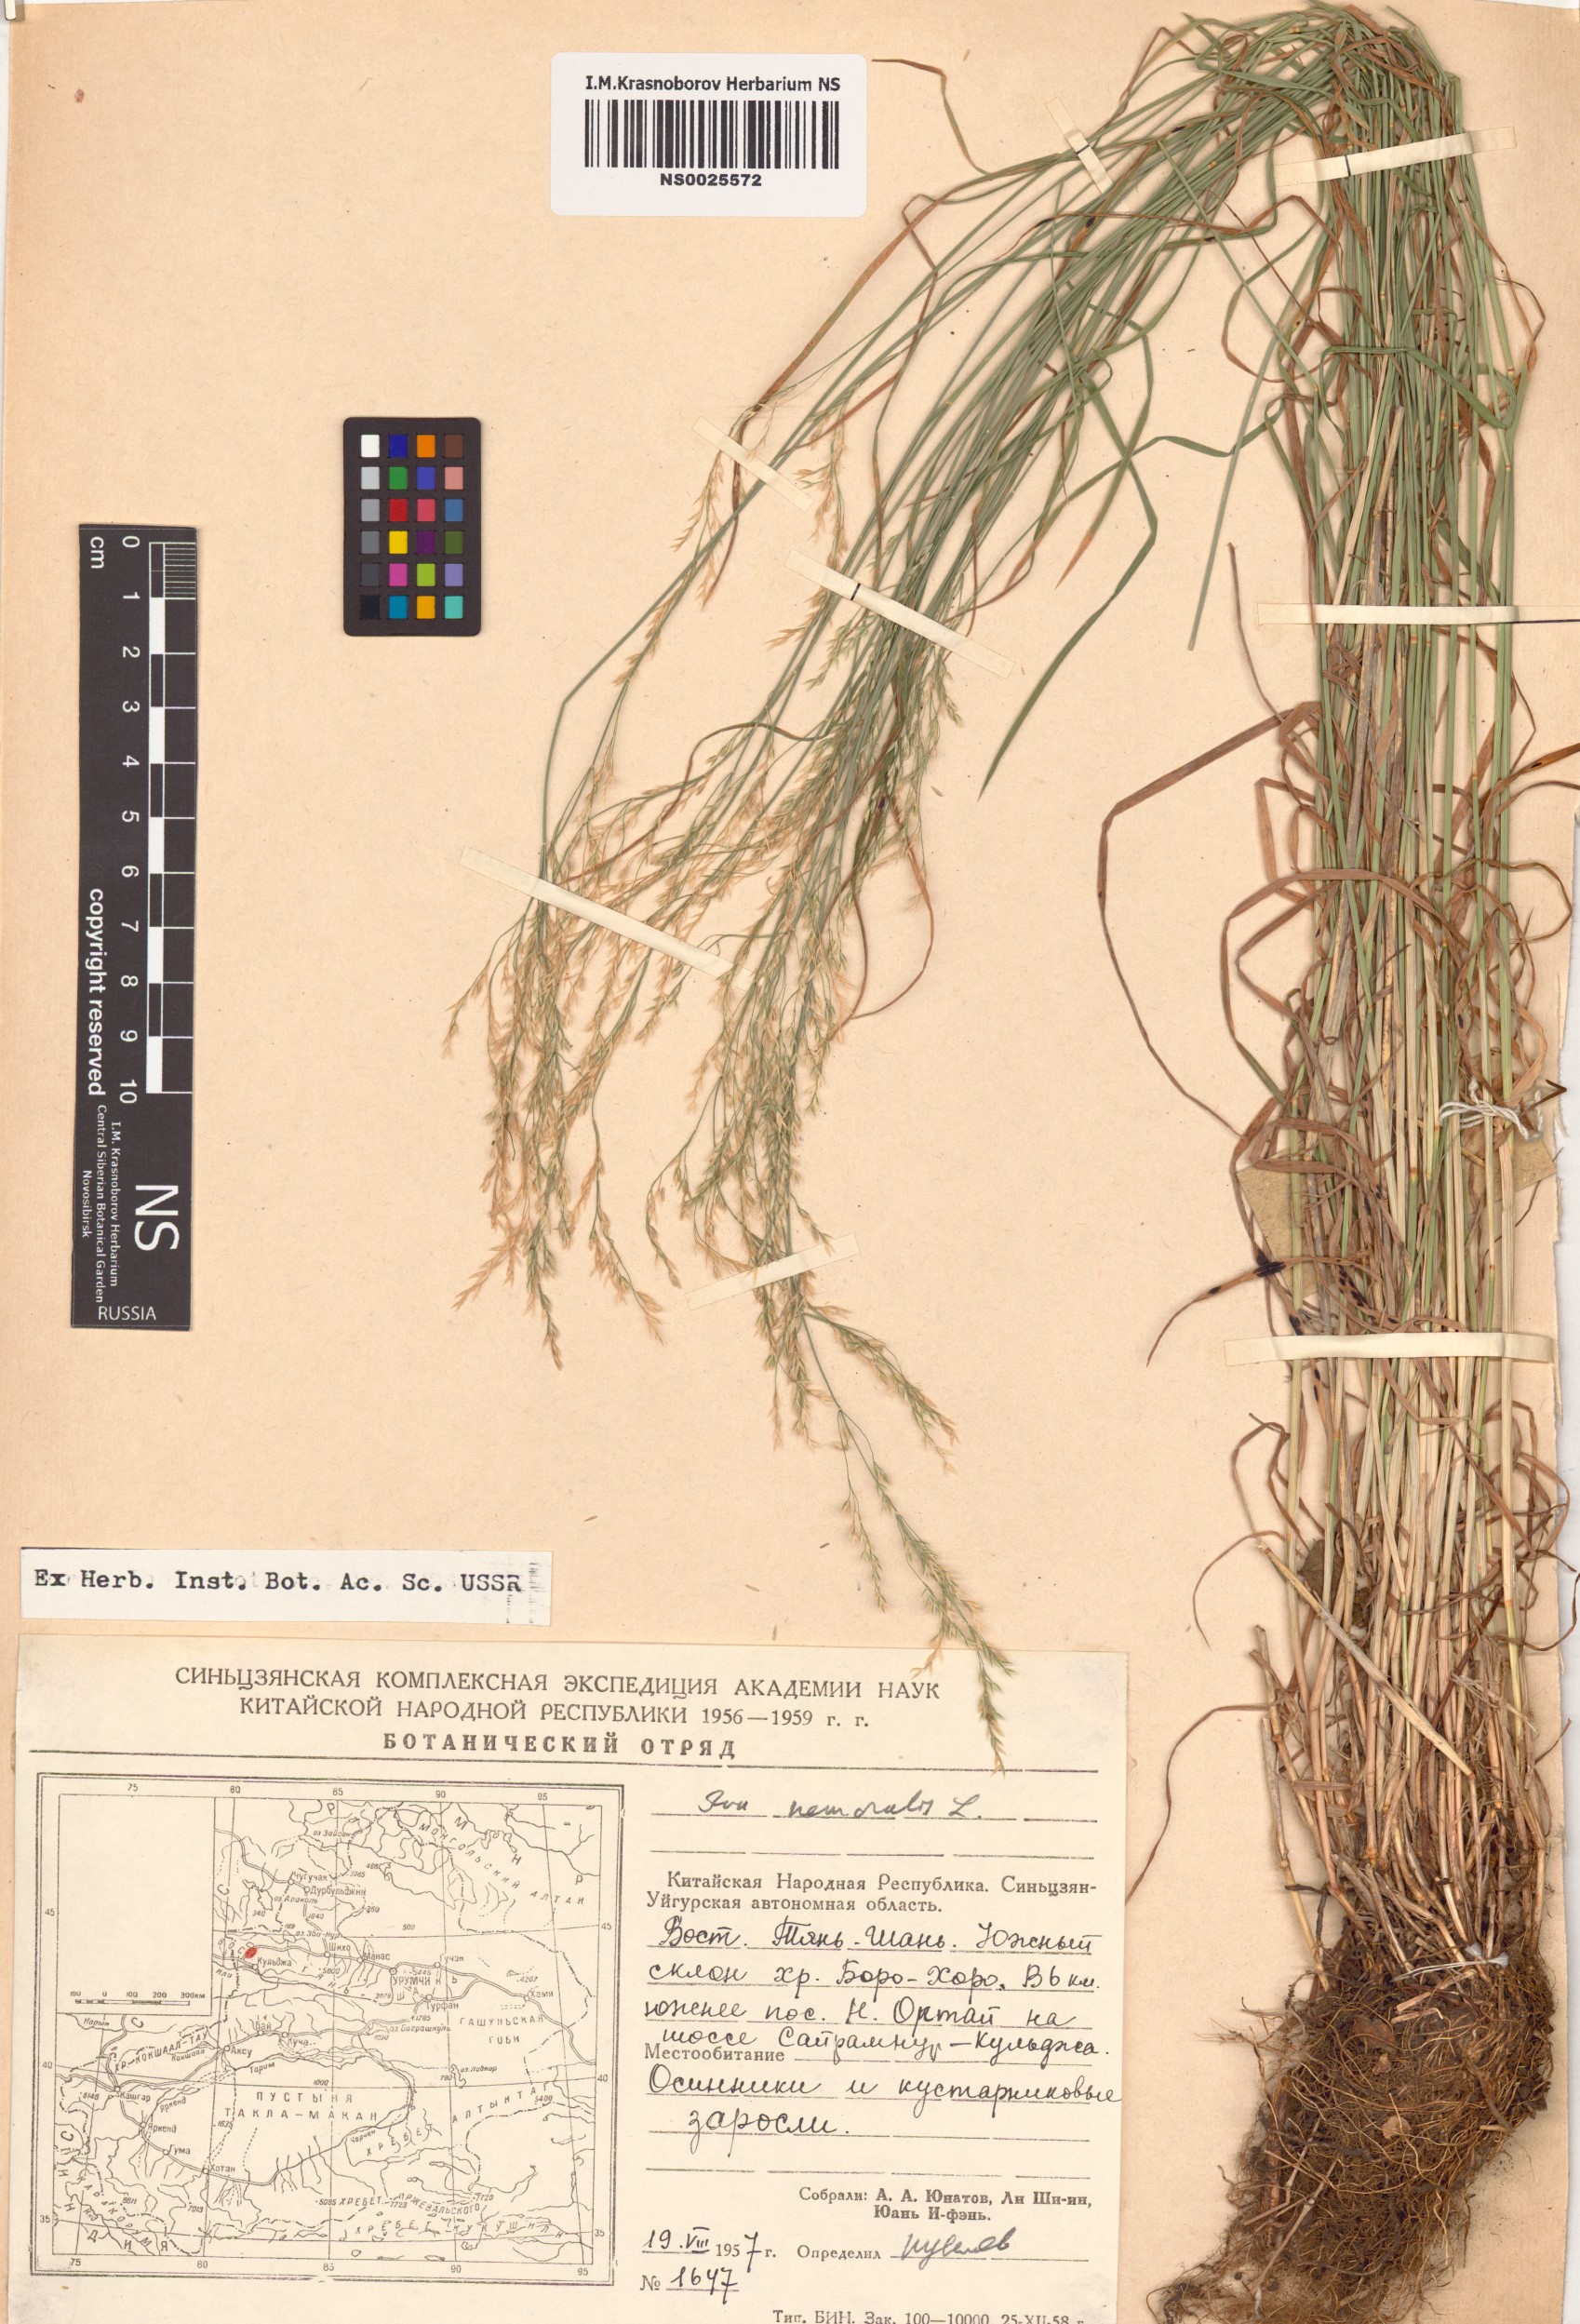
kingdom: Plantae
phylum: Tracheophyta
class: Liliopsida
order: Poales
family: Poaceae
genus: Poa
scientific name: Poa nemoralis
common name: Wood bluegrass
